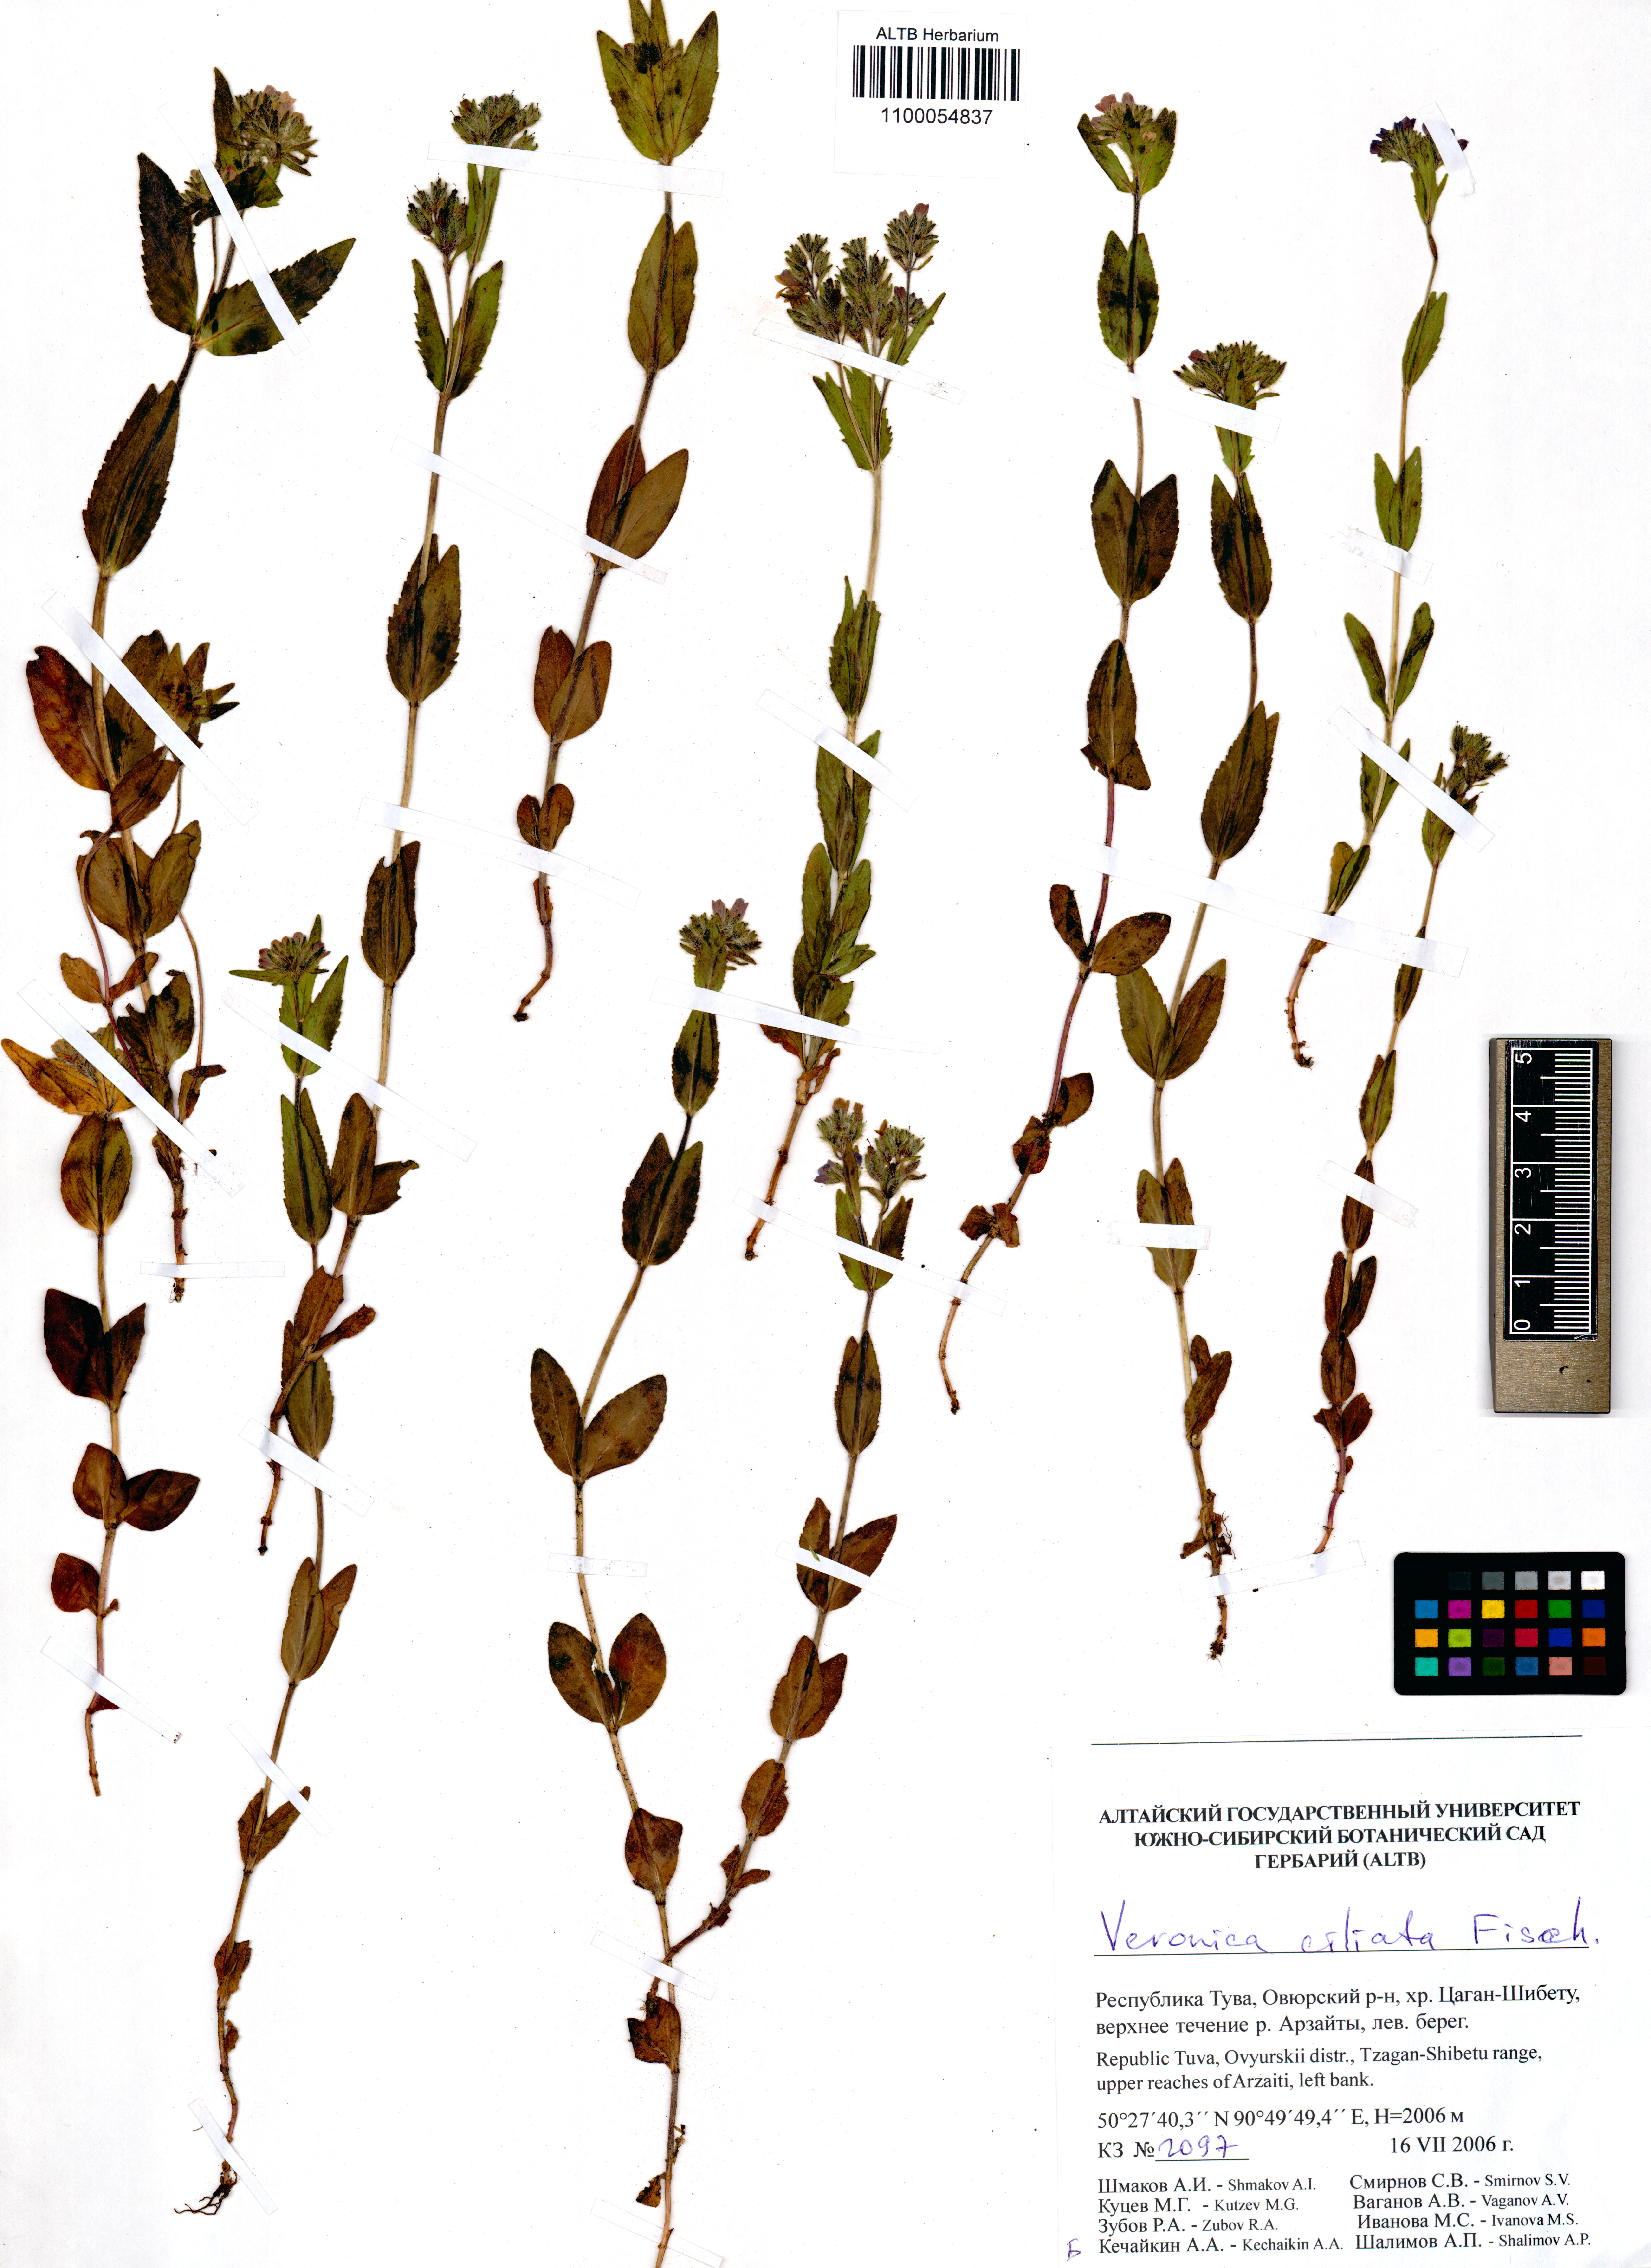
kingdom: Plantae
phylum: Tracheophyta
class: Magnoliopsida
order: Lamiales
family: Plantaginaceae
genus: Veronica
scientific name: Veronica ciliata
